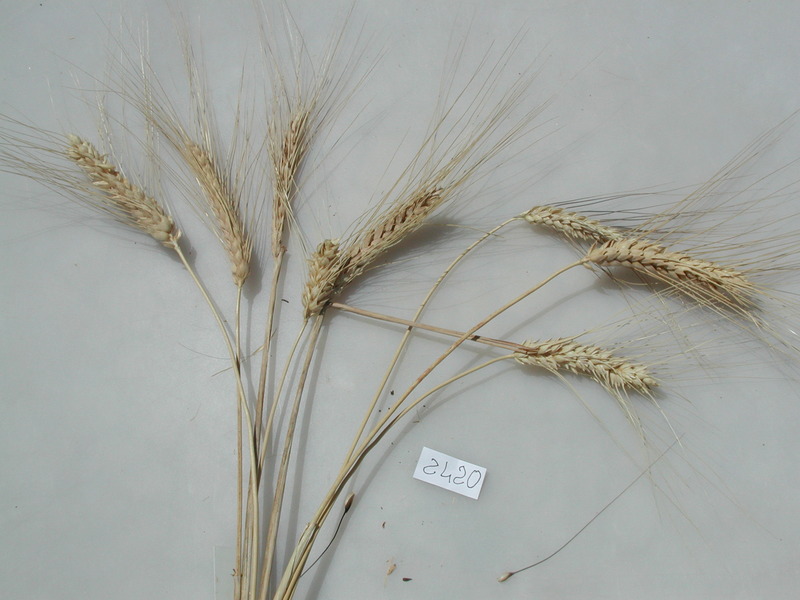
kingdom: Plantae
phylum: Tracheophyta
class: Liliopsida
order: Poales
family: Poaceae
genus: Triticum
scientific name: Triticum turgidum
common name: Wheat
